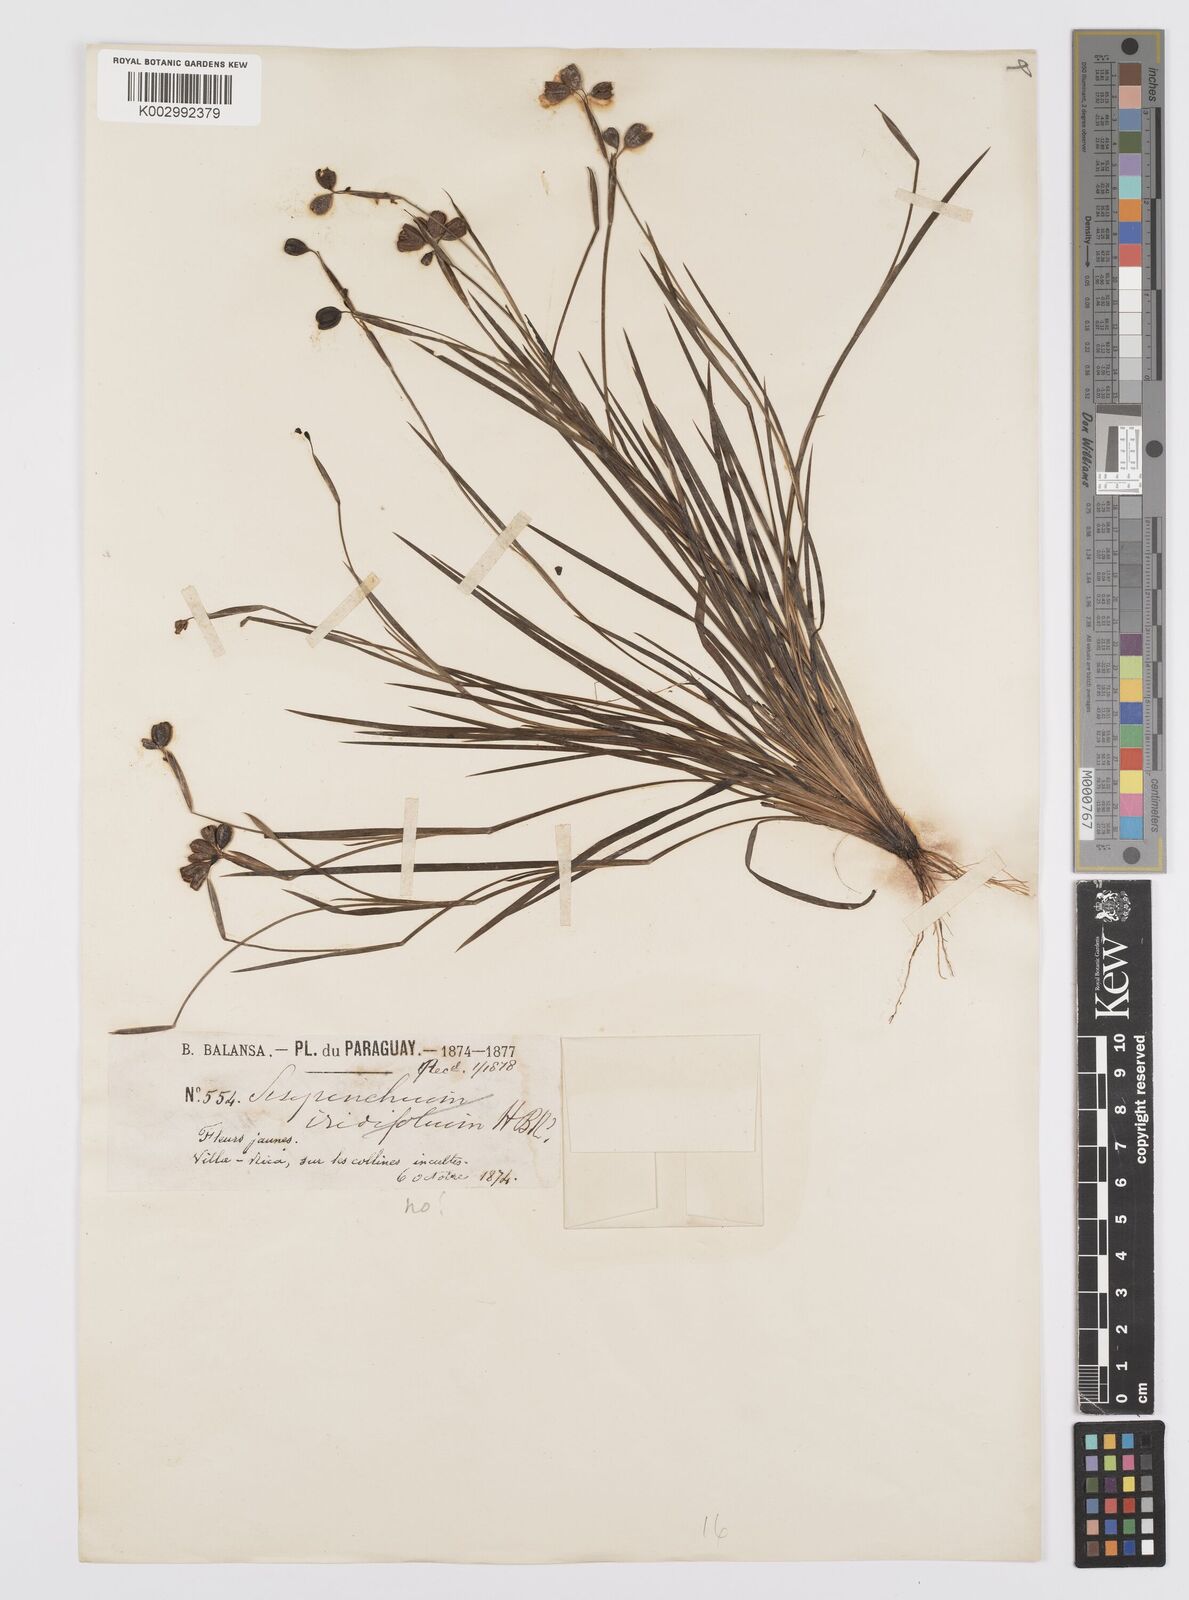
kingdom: Plantae
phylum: Tracheophyta
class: Liliopsida
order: Asparagales
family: Iridaceae
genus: Sisyrinchium
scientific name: Sisyrinchium
